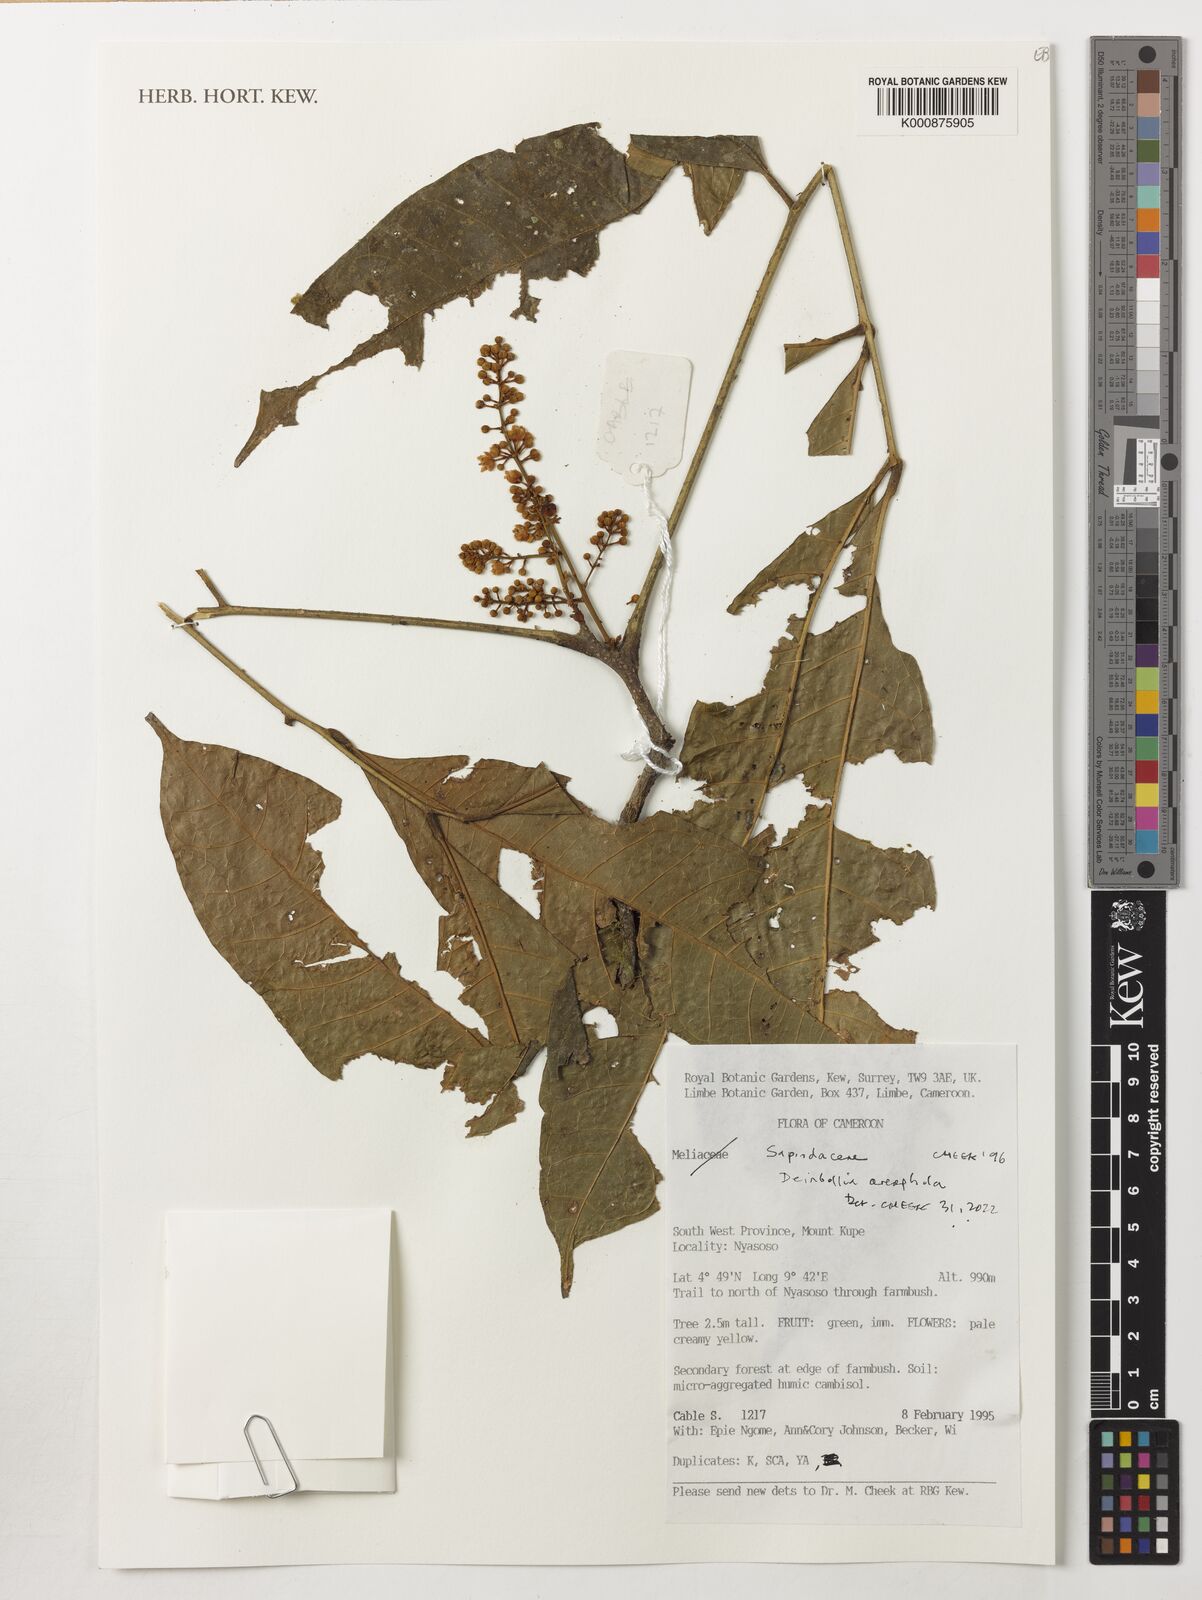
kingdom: Plantae
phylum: Tracheophyta
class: Magnoliopsida
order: Sapindales
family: Sapindaceae
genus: Deinbollia
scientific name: Deinbollia oreophila
